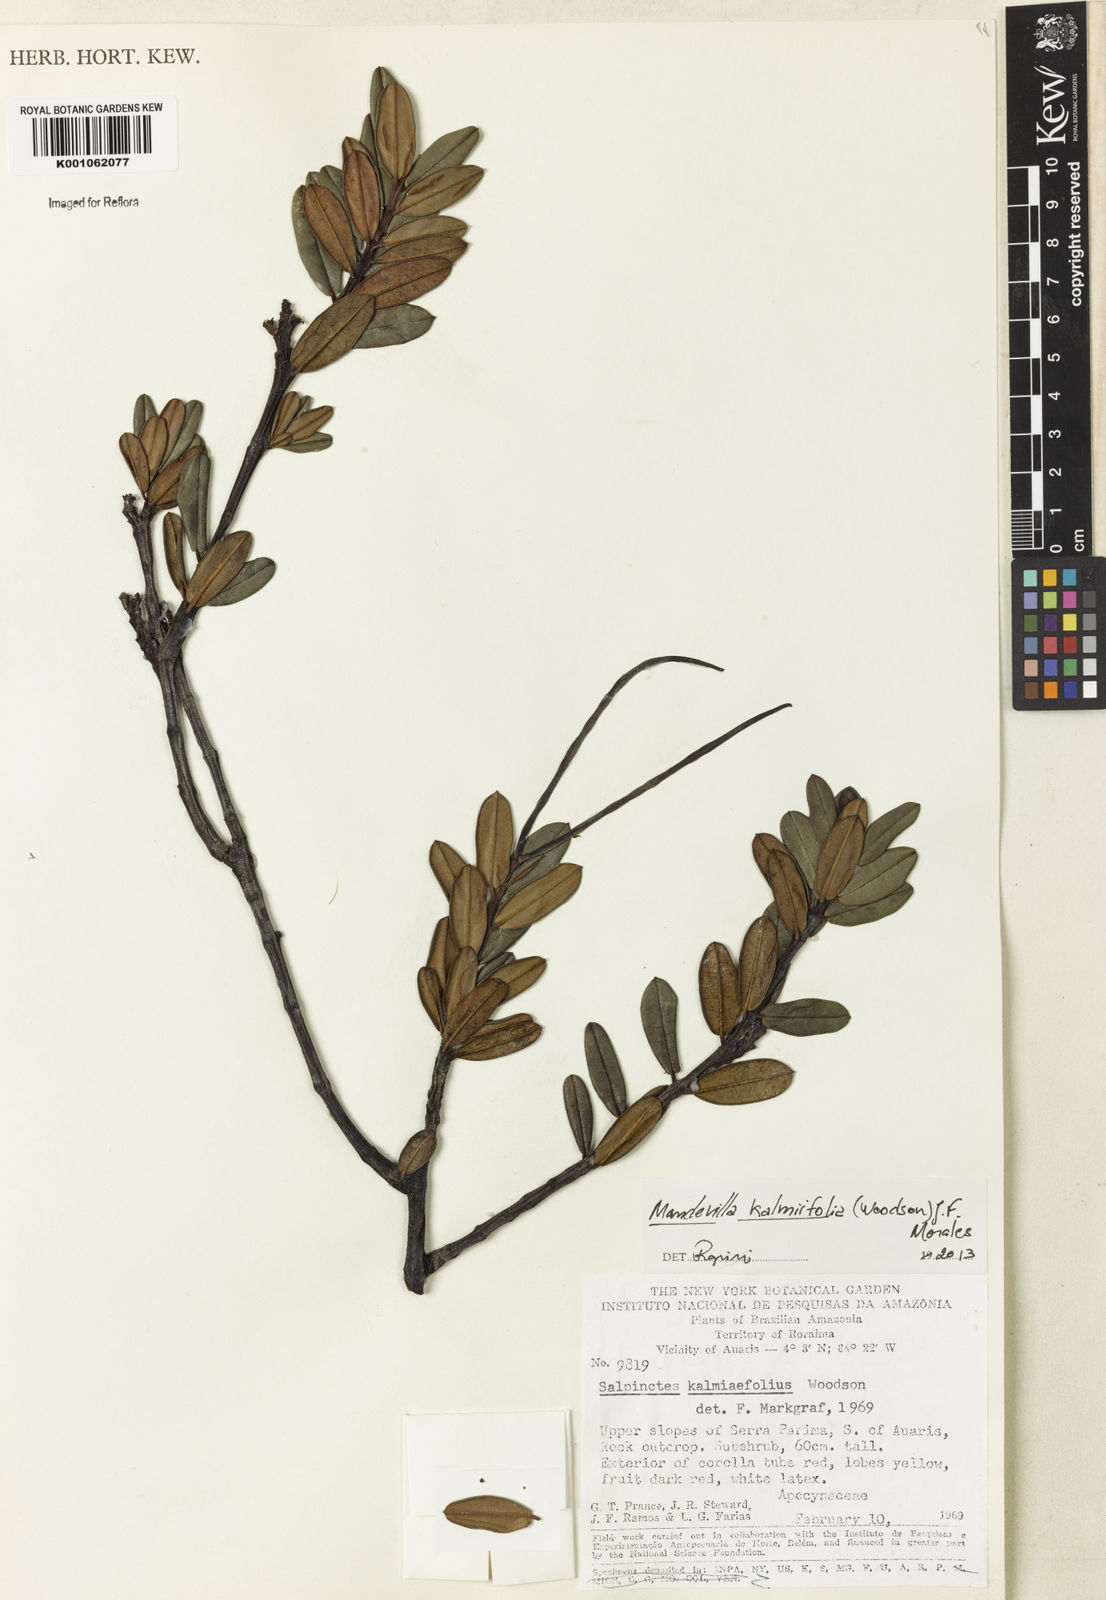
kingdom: Plantae
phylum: Tracheophyta
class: Magnoliopsida
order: Gentianales
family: Apocynaceae
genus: Salpinctes
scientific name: Salpinctes kalmiifolius
